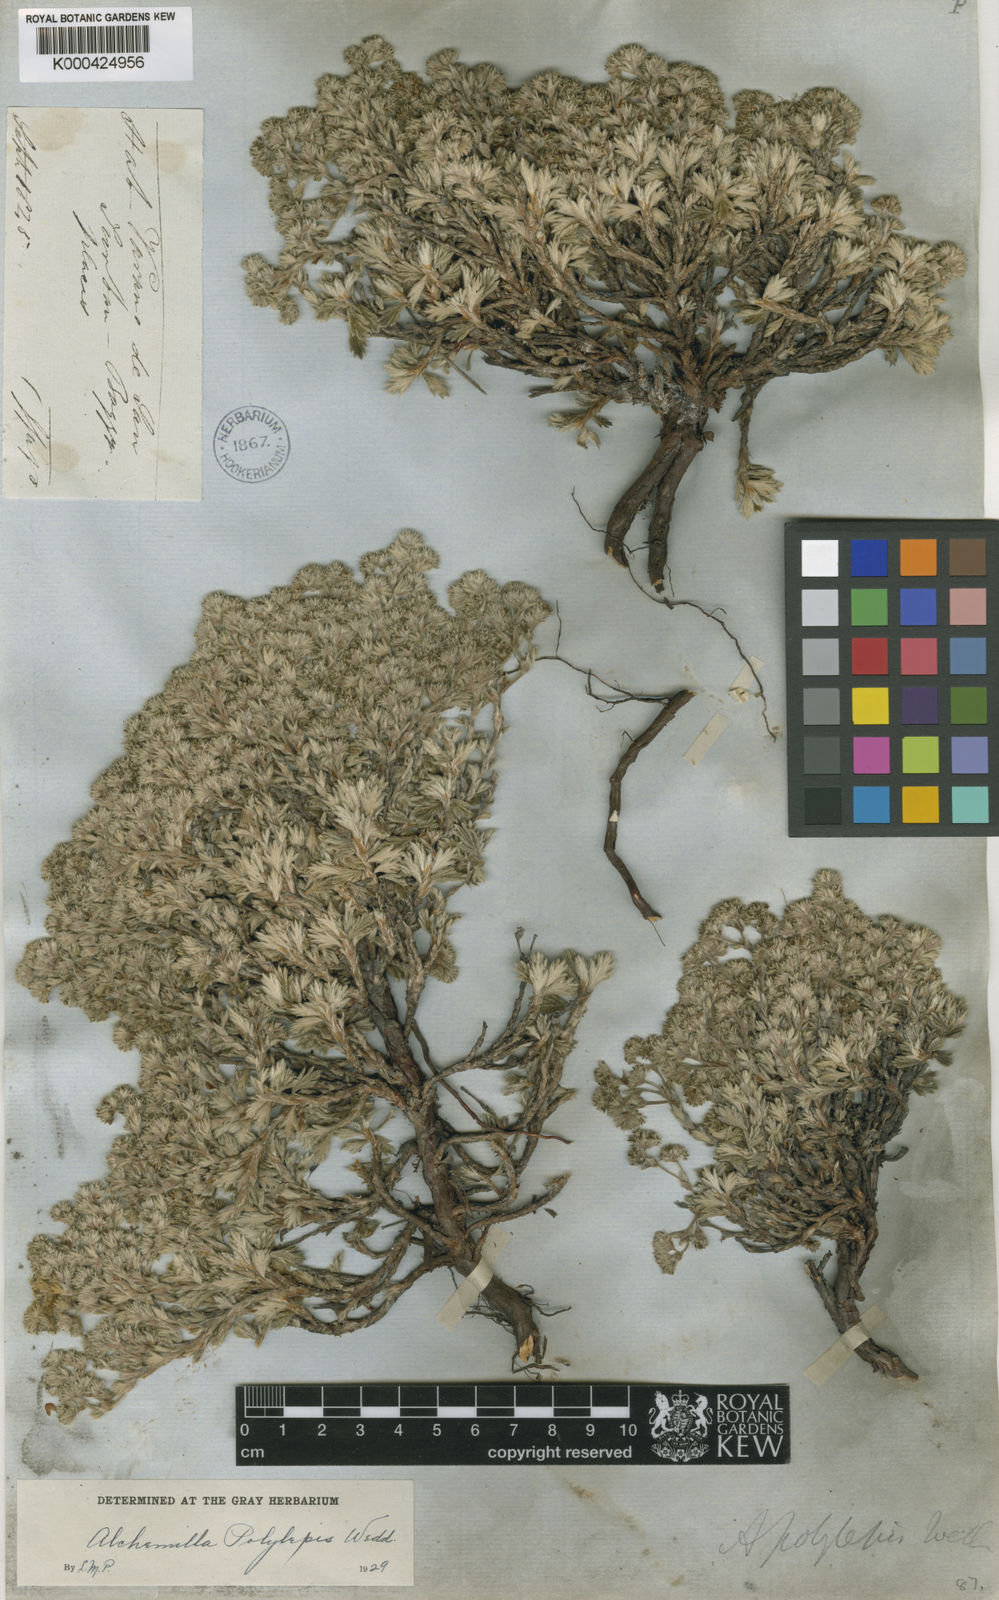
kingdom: Plantae
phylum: Tracheophyta
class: Magnoliopsida
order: Rosales
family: Rosaceae
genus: Lachemilla
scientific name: Lachemilla polylepis
